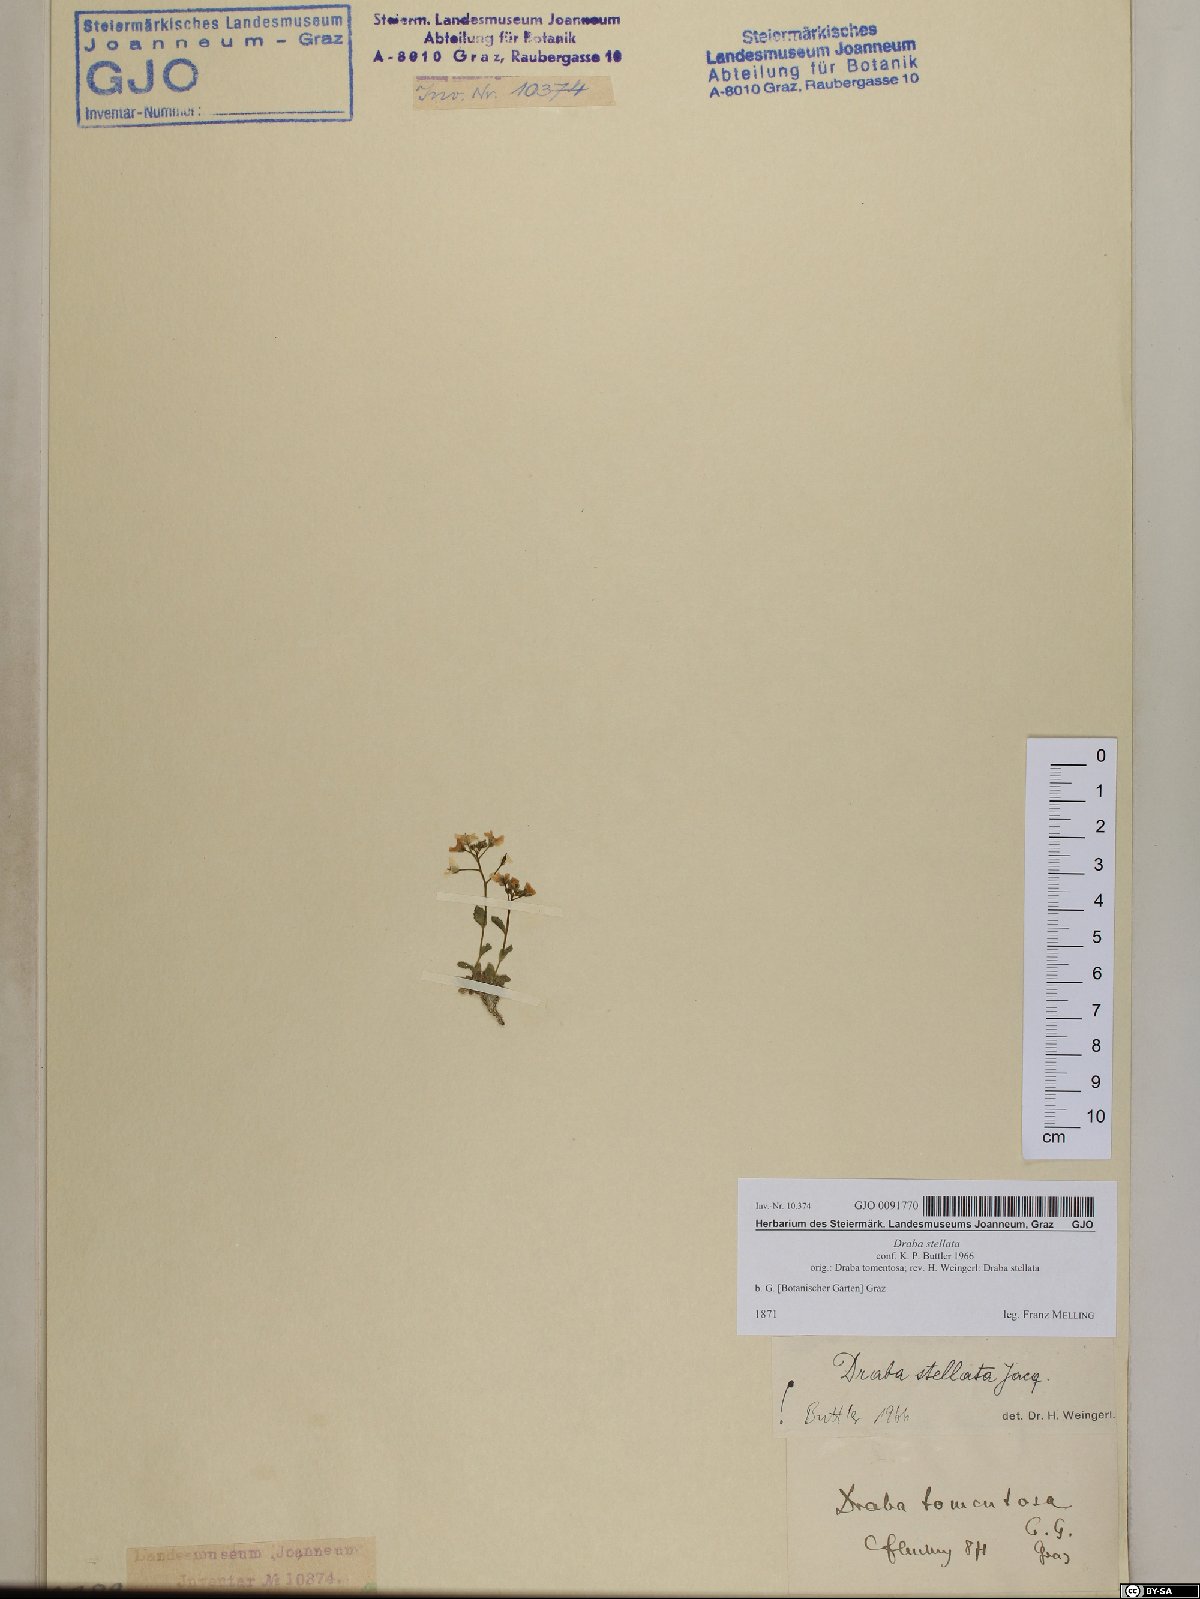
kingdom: Plantae
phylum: Tracheophyta
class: Magnoliopsida
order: Brassicales
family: Brassicaceae
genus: Draba
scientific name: Draba stellata
